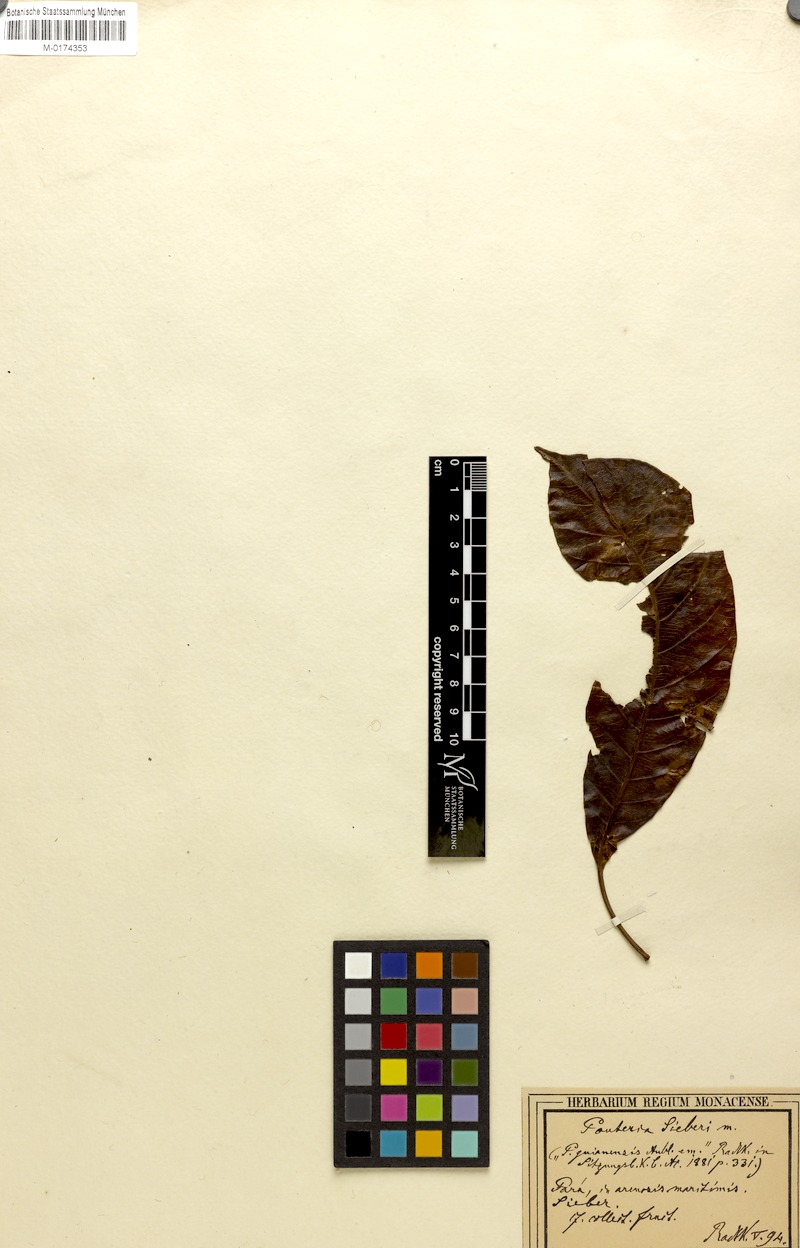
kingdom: Plantae
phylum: Tracheophyta
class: Magnoliopsida
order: Ericales
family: Sapotaceae
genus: Pouteria
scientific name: Pouteria
